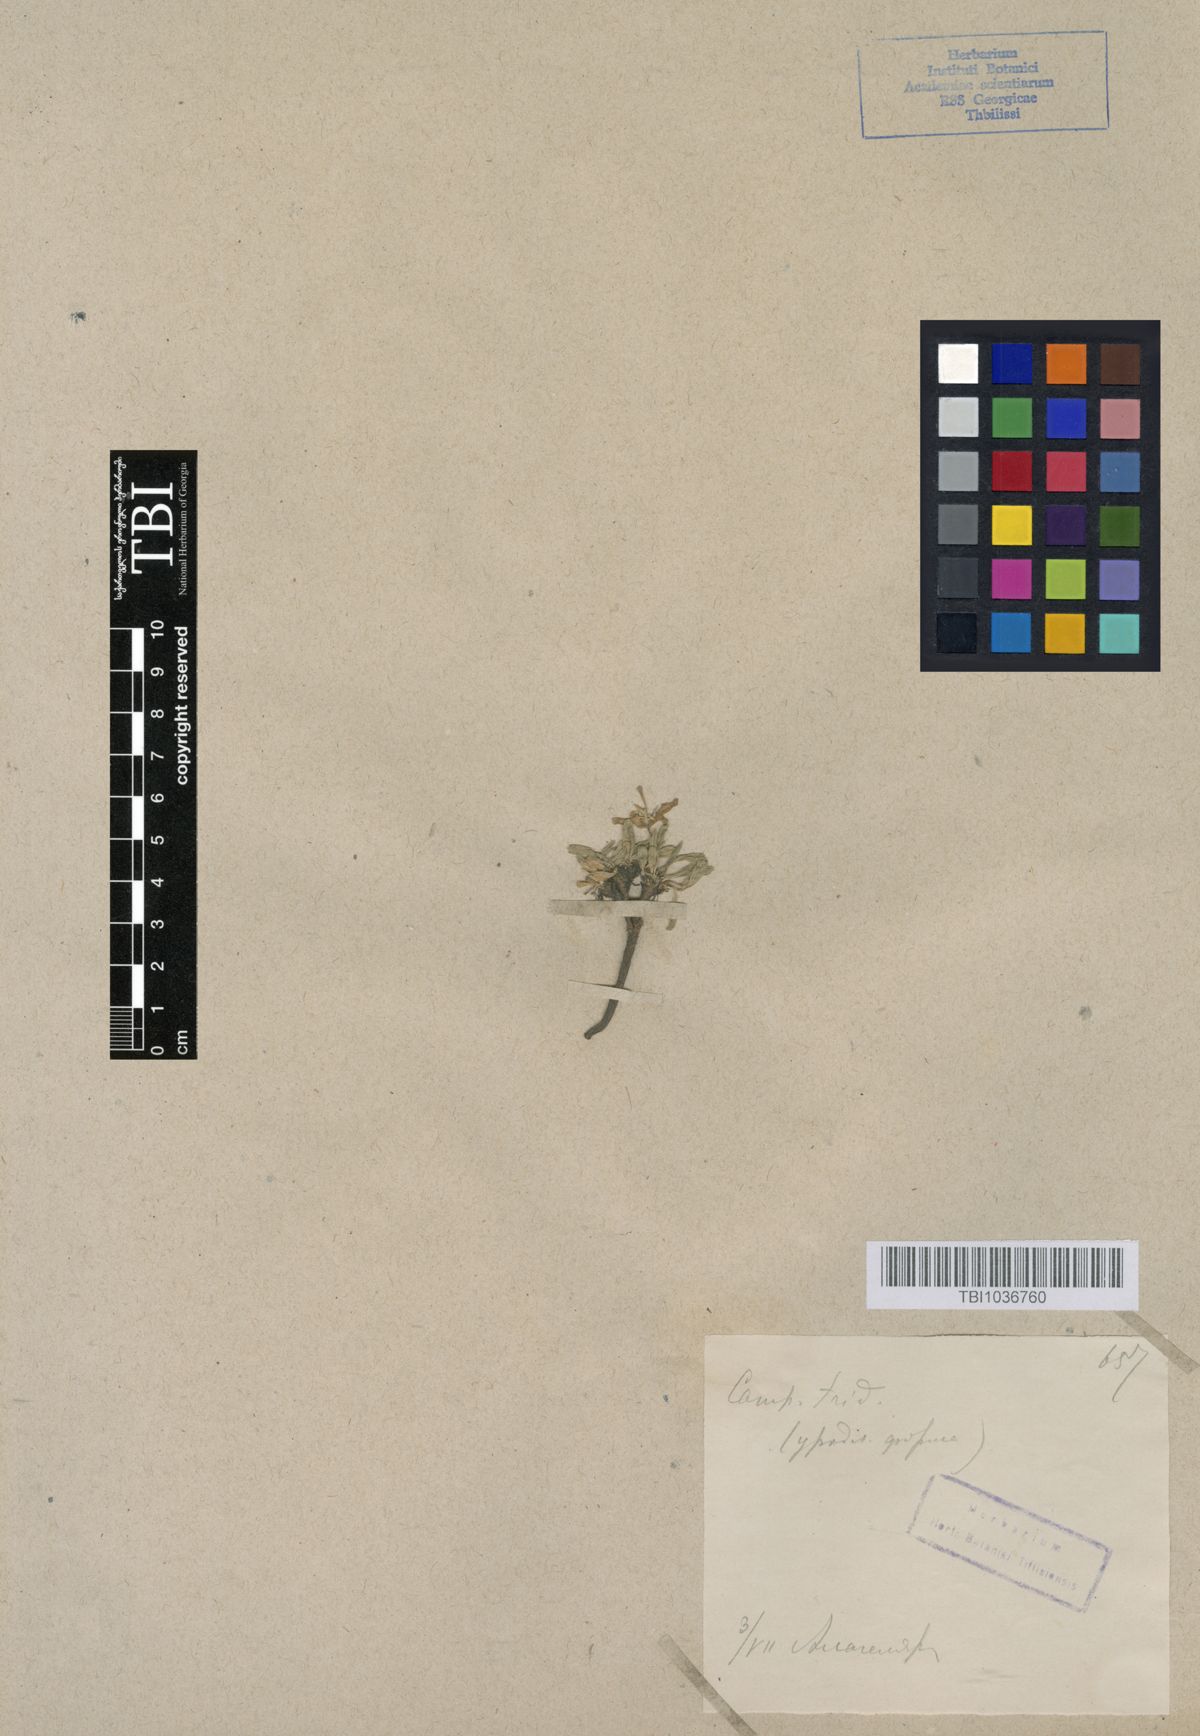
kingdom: Plantae
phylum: Tracheophyta
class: Magnoliopsida
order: Asterales
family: Campanulaceae
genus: Campanula
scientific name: Campanula tridentata
